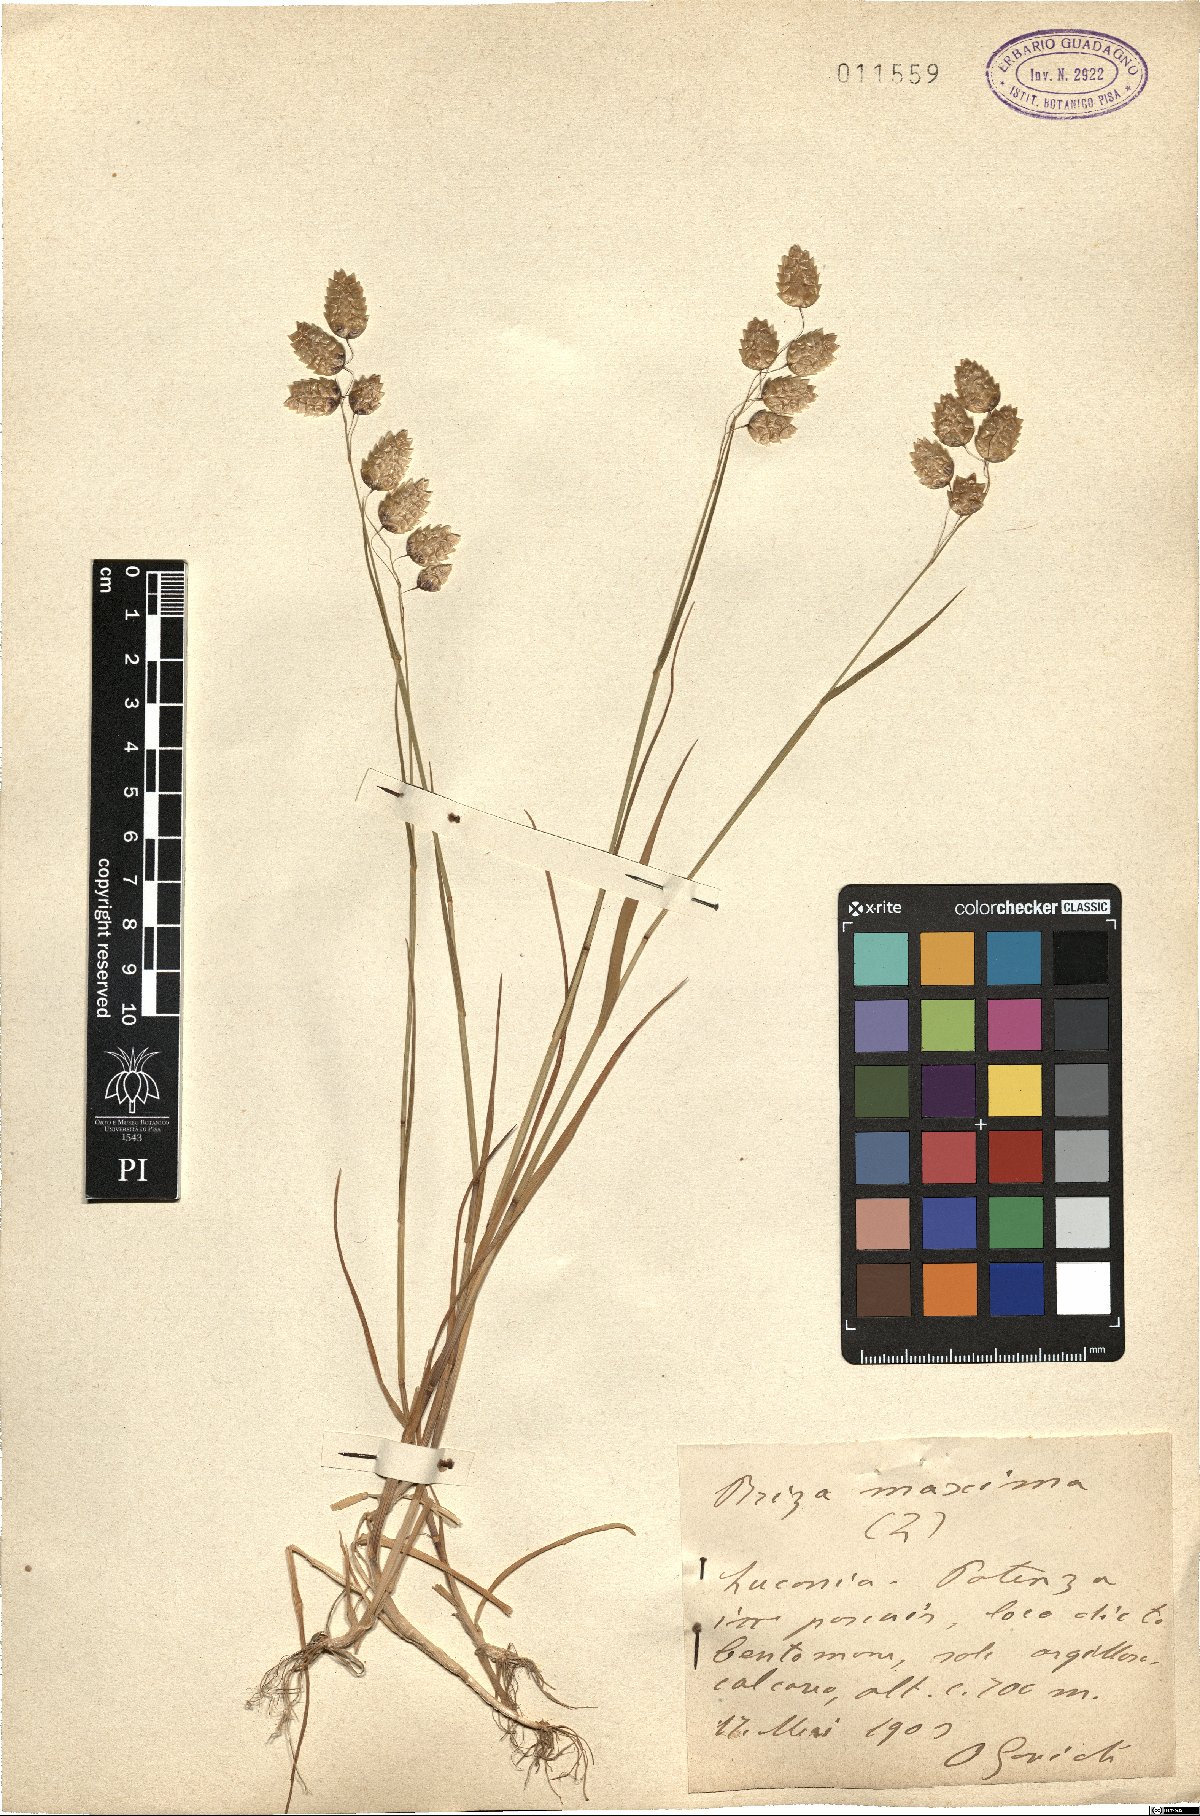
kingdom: Plantae
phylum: Tracheophyta
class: Liliopsida
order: Poales
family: Poaceae
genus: Briza
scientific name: Briza maxima
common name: Big quakinggrass
